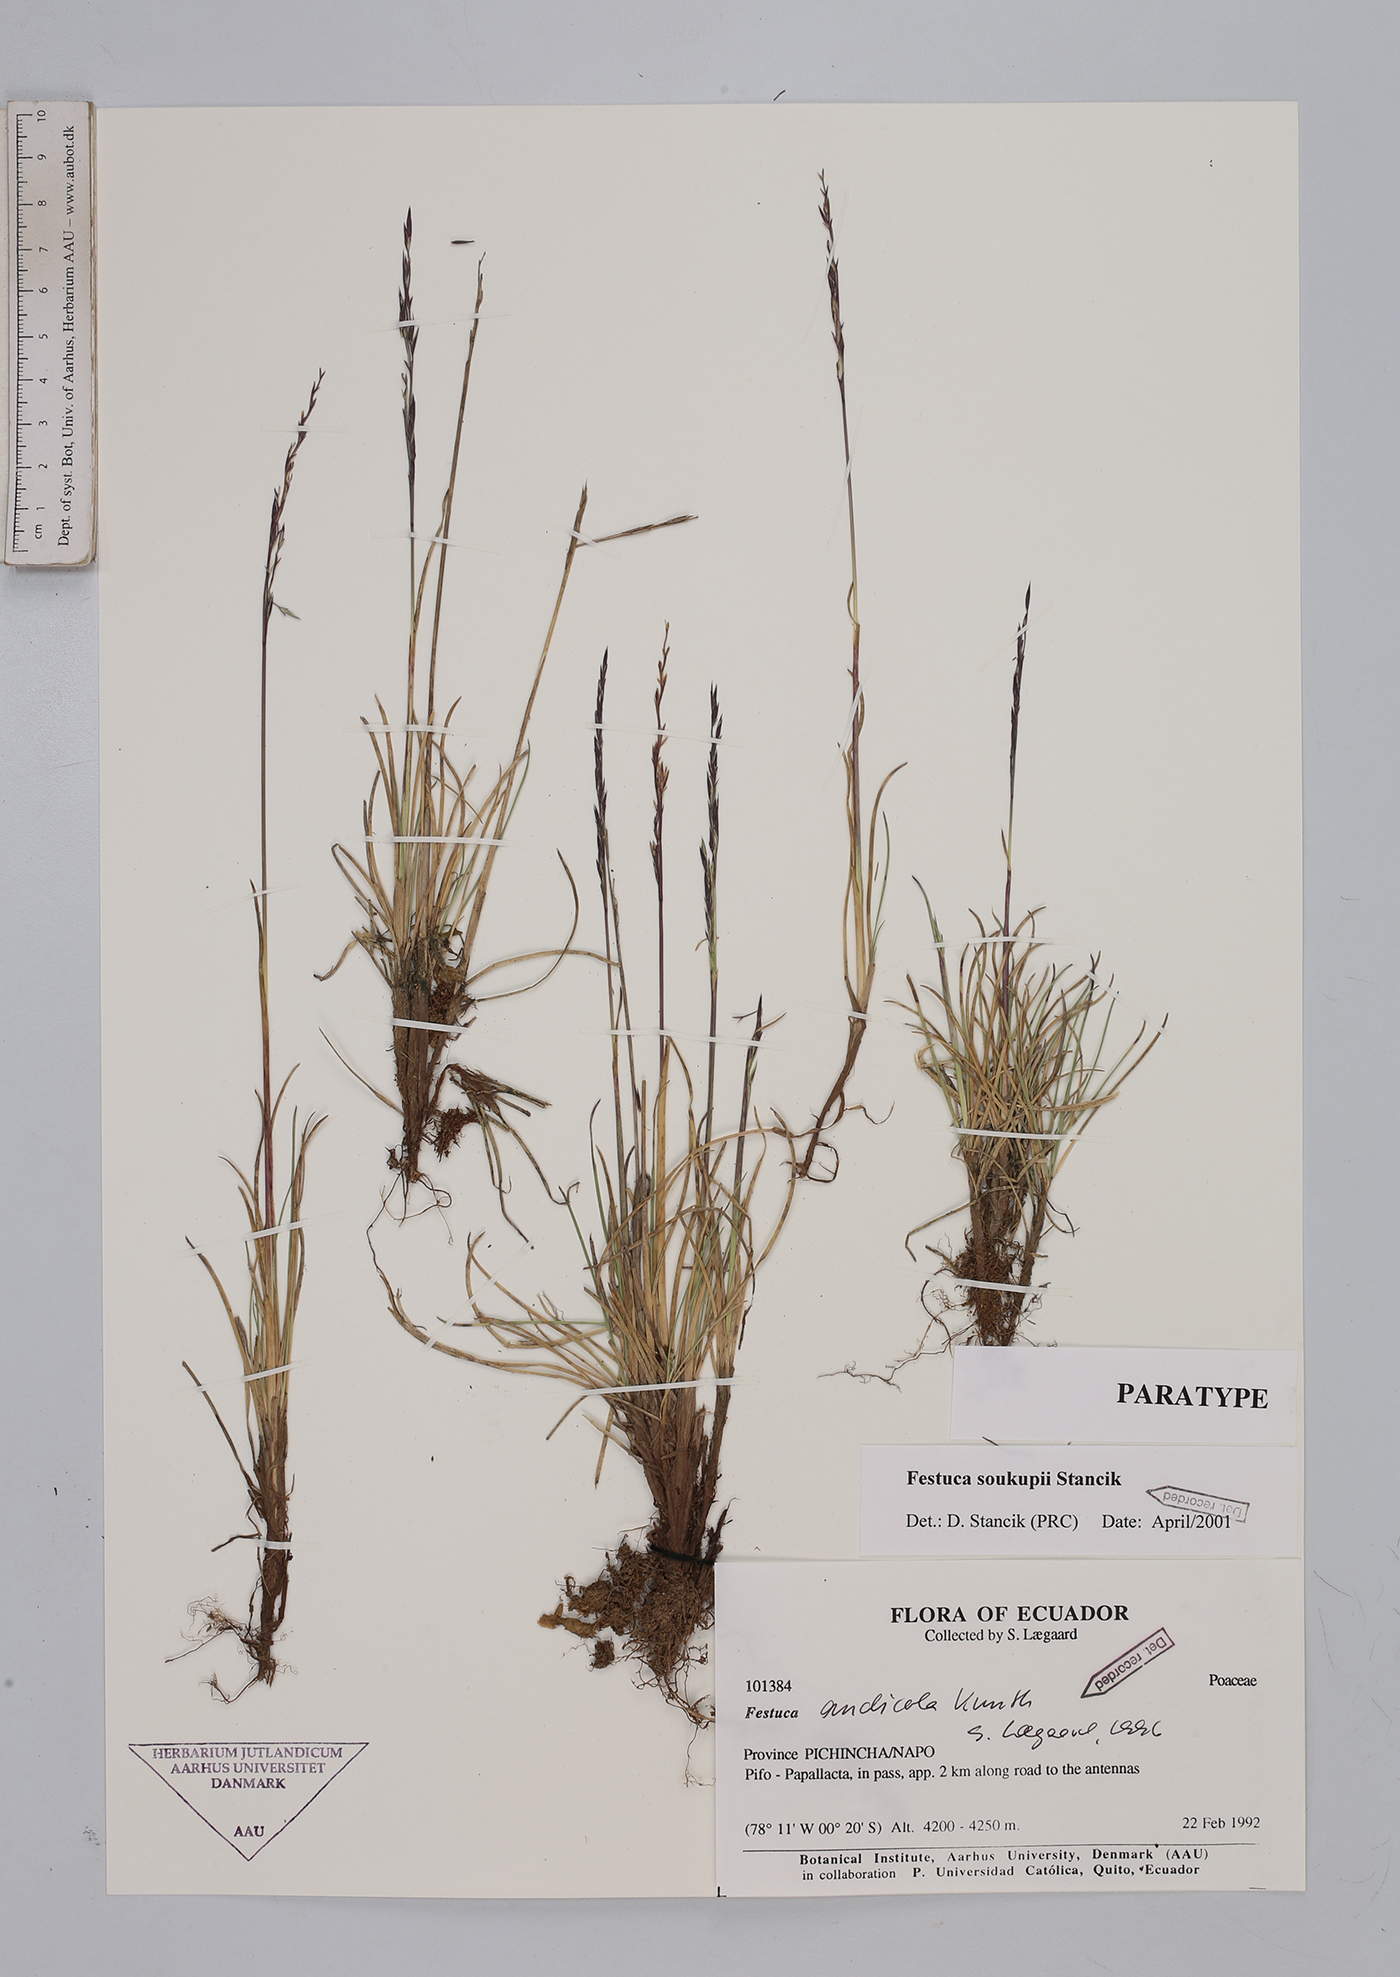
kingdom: Plantae
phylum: Tracheophyta
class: Liliopsida
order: Poales
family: Poaceae
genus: Festuca
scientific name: Festuca soukupii
